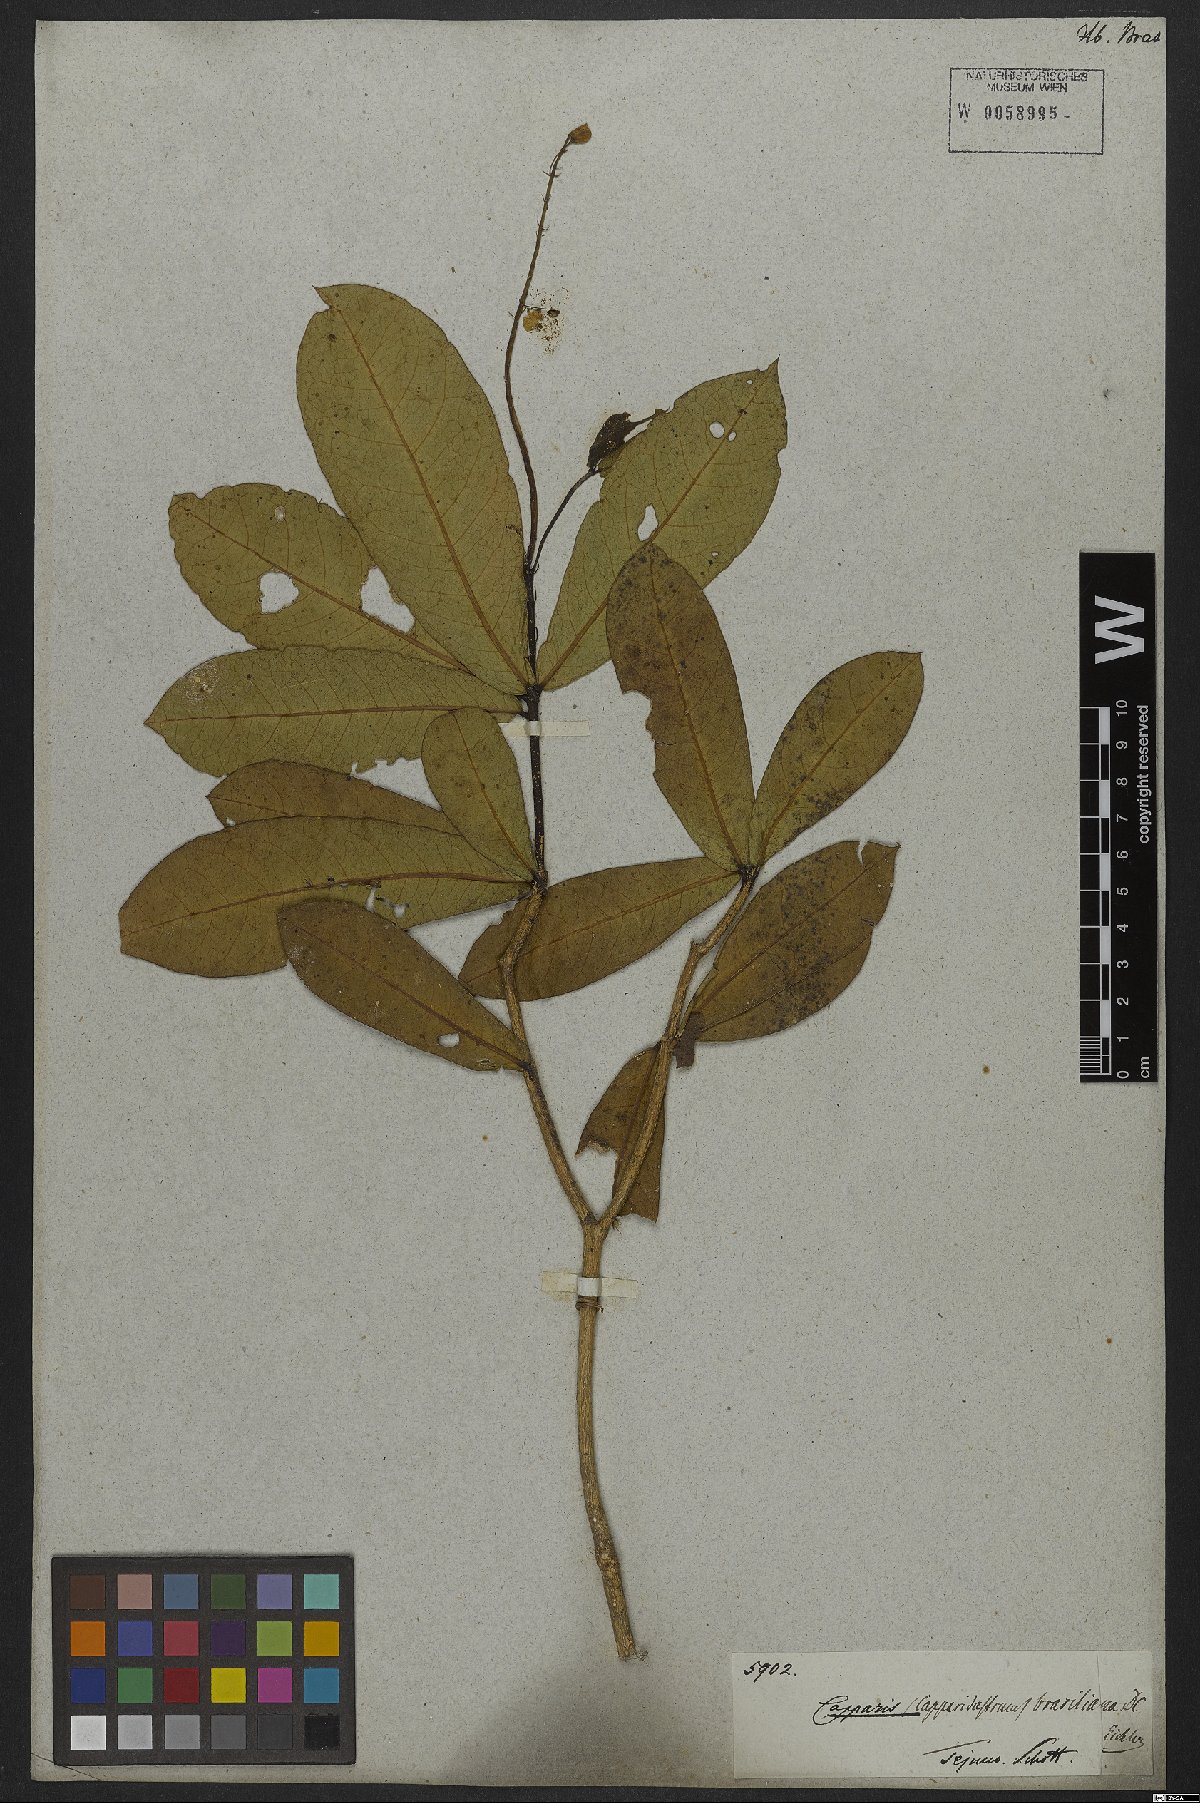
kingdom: Plantae
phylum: Tracheophyta
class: Magnoliopsida
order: Brassicales
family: Capparaceae
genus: Monilicarpa
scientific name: Monilicarpa brasiliana
